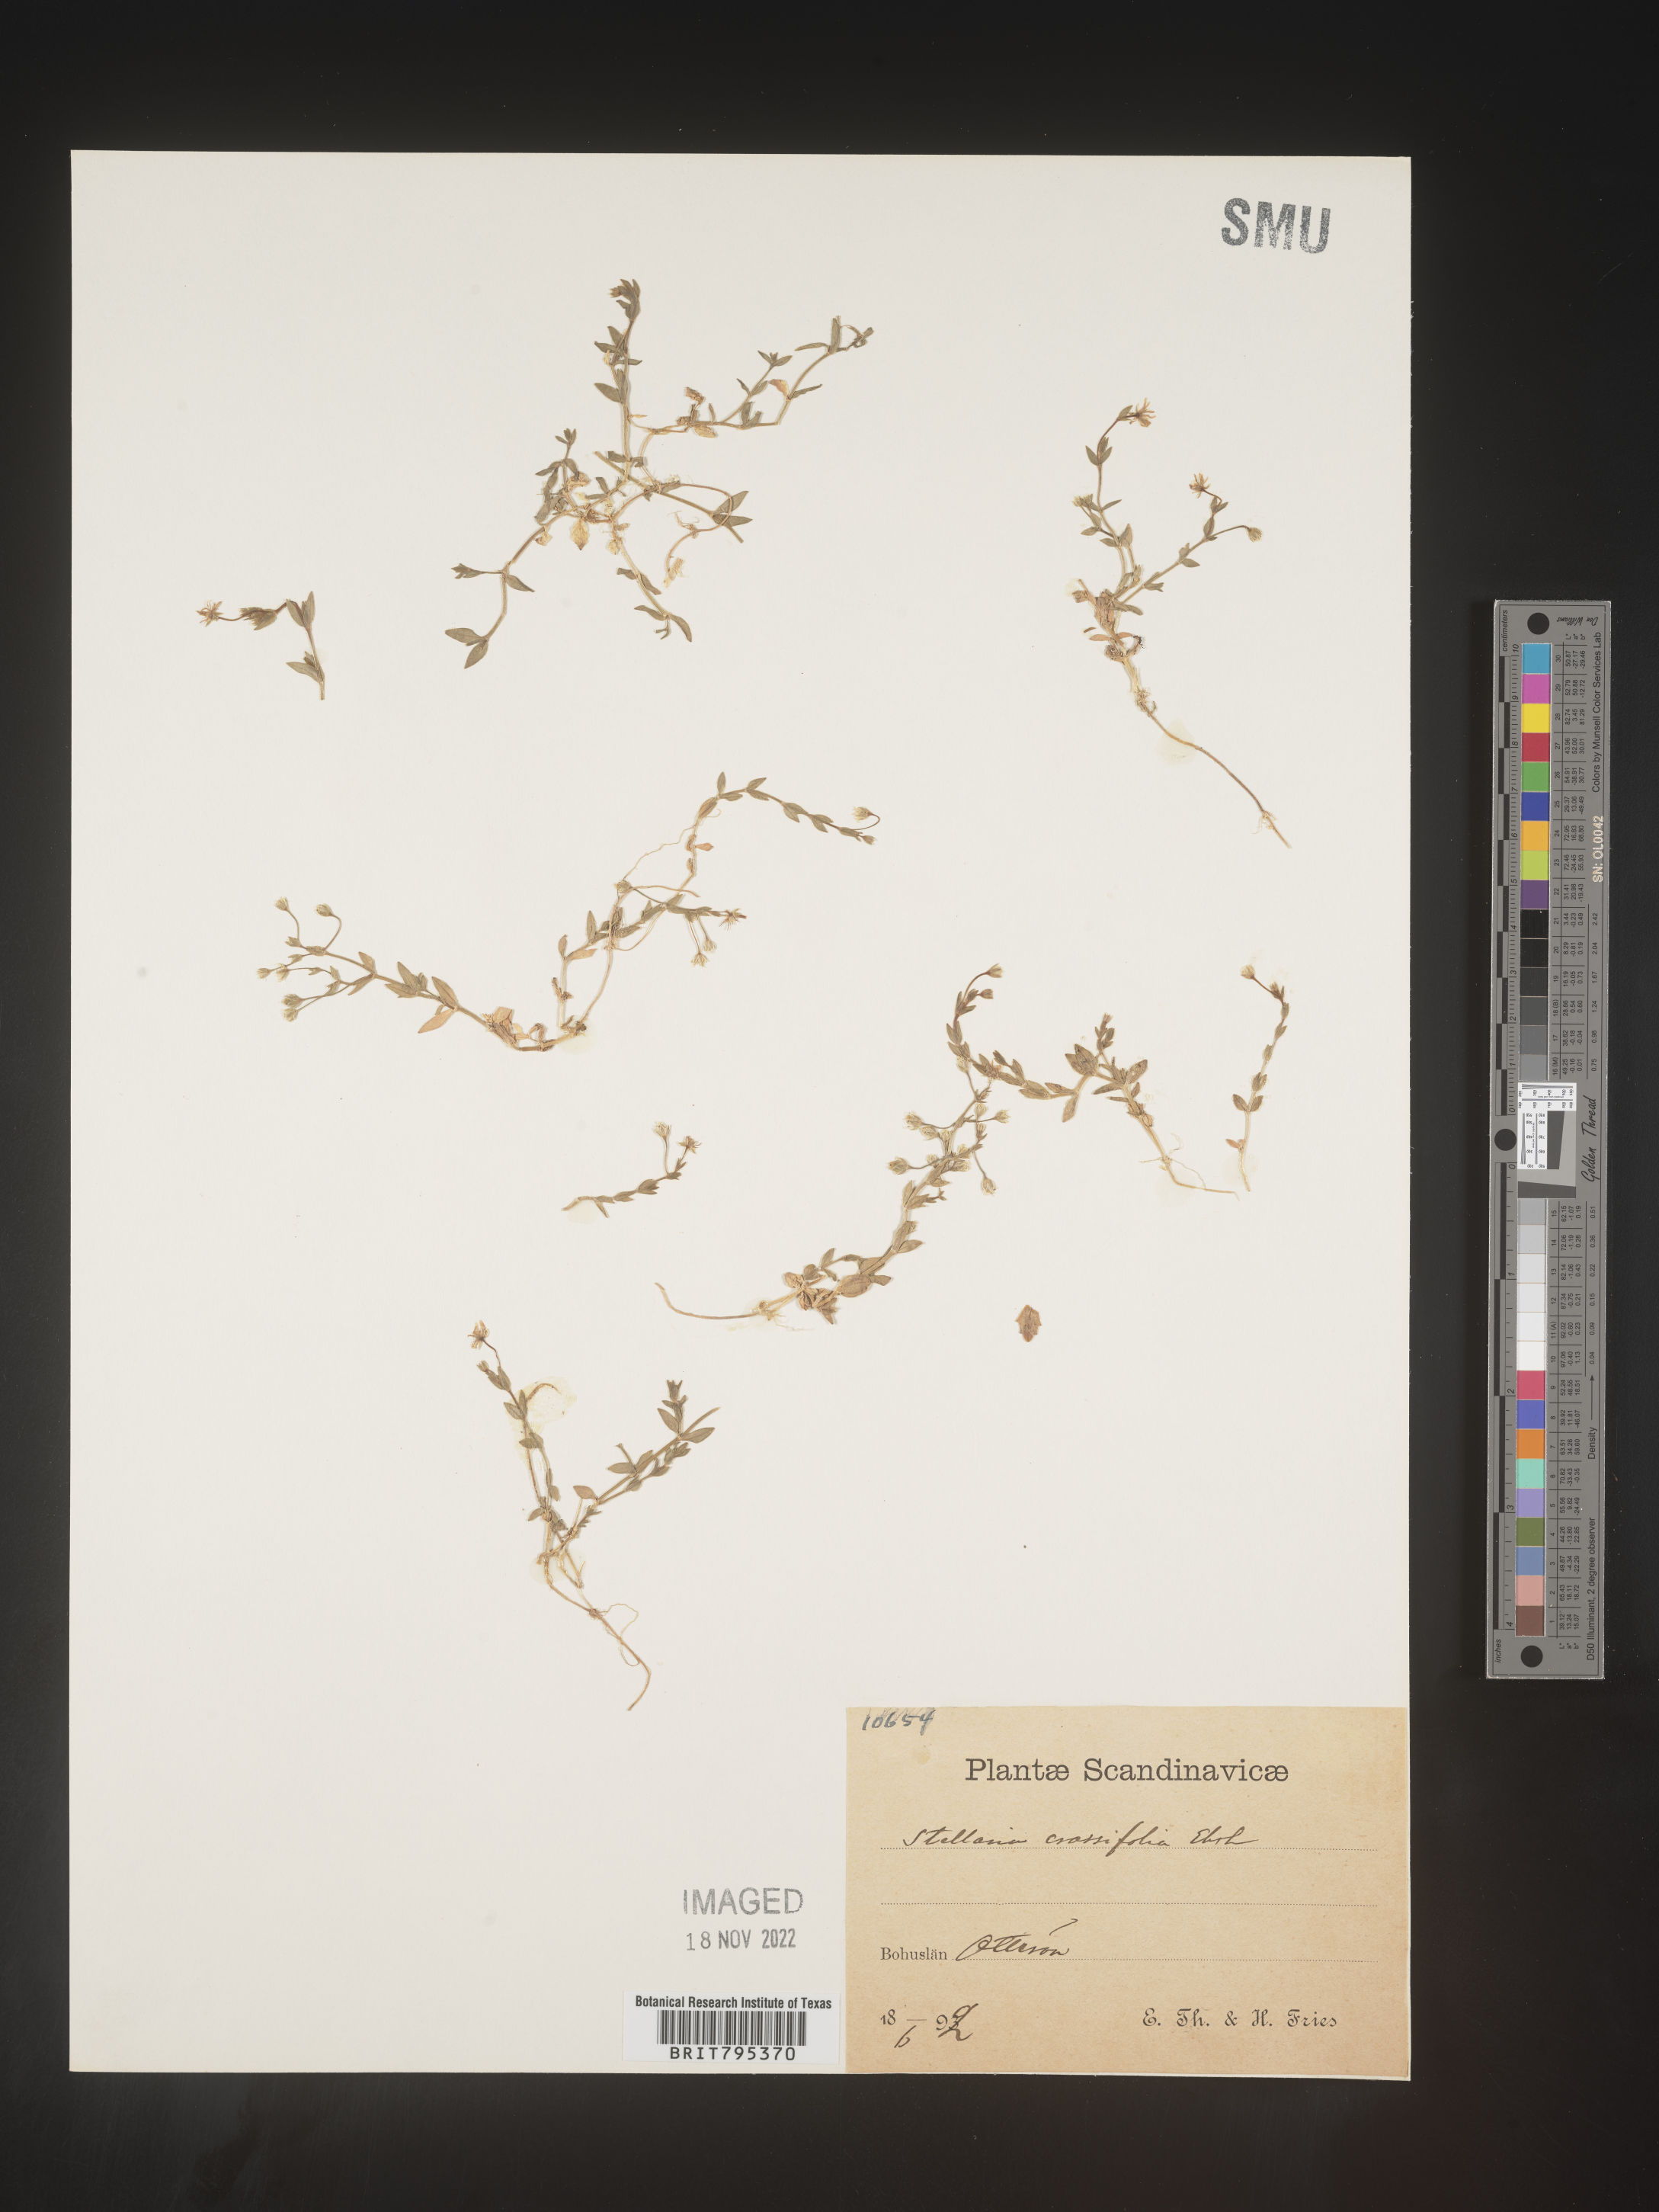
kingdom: Plantae
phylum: Tracheophyta
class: Magnoliopsida
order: Caryophyllales
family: Caryophyllaceae
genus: Stellaria
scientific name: Stellaria
